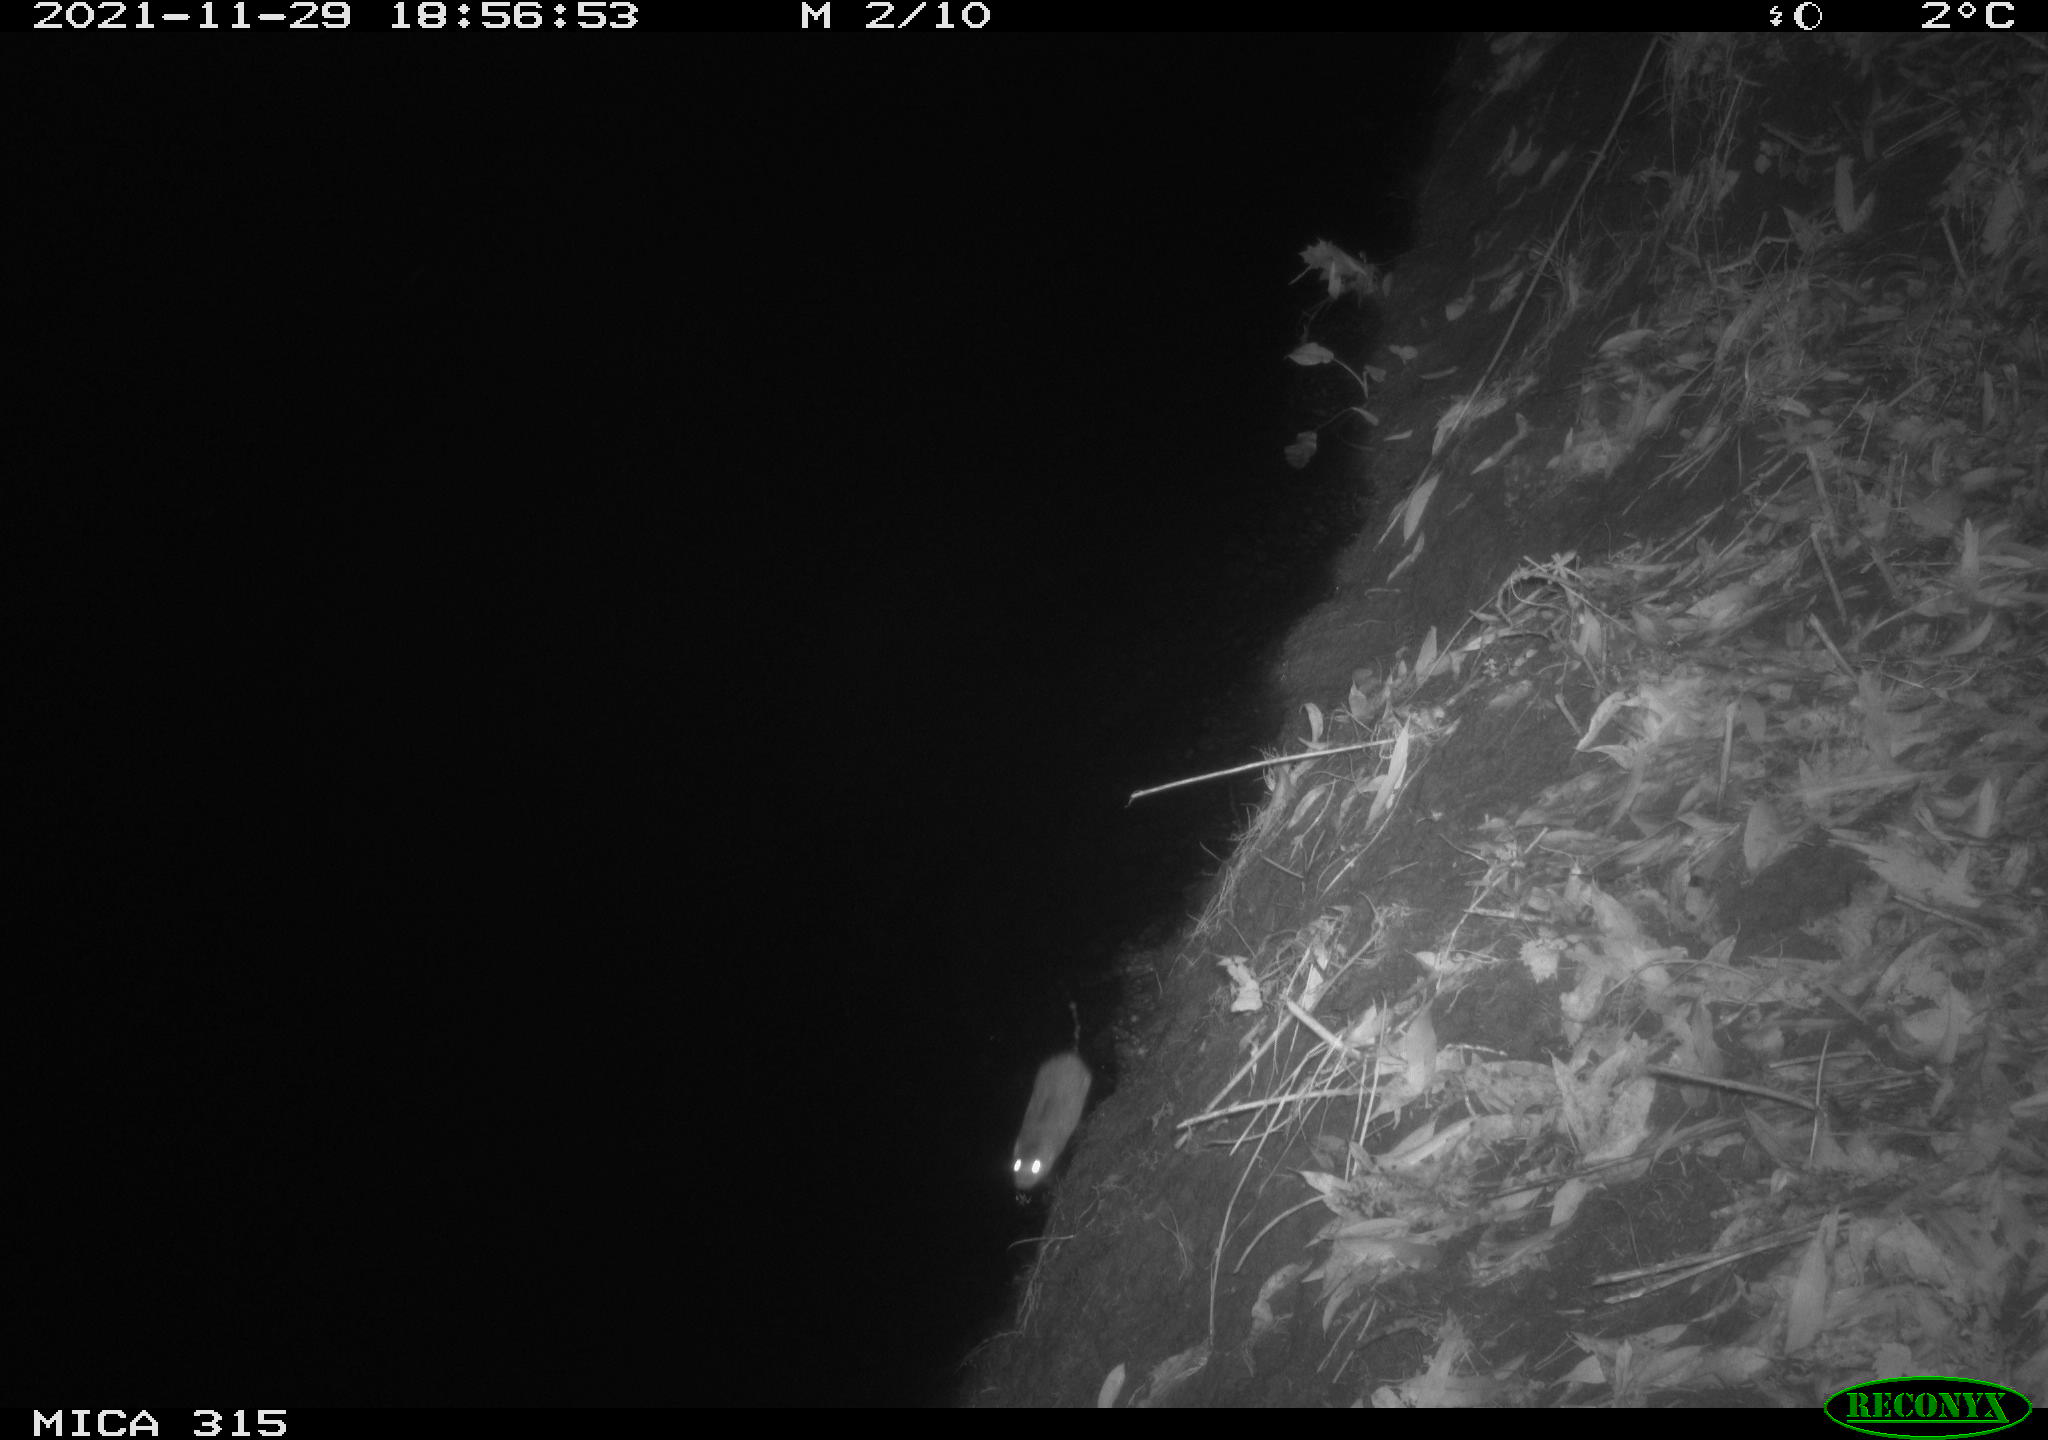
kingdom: Animalia
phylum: Chordata
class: Mammalia
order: Rodentia
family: Muridae
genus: Rattus
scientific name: Rattus norvegicus
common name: Brown rat
